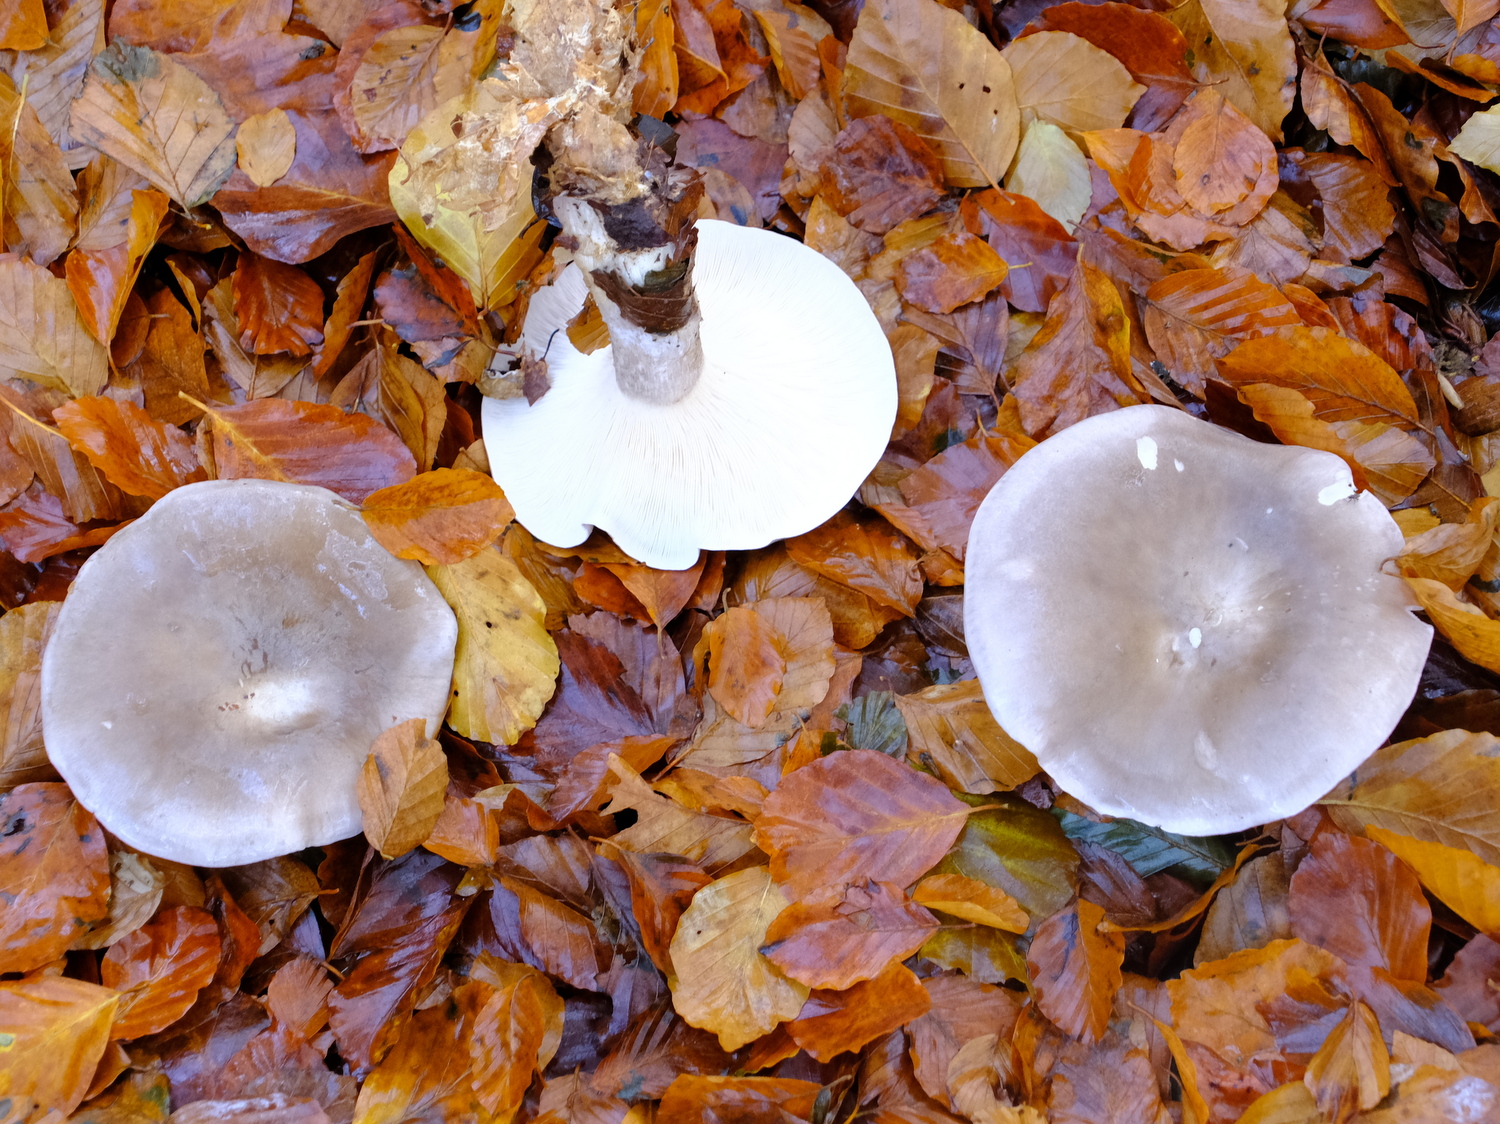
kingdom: Fungi
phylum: Basidiomycota
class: Agaricomycetes
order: Agaricales
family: Tricholomataceae
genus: Clitocybe
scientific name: Clitocybe nebularis
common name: tåge-tragthat
